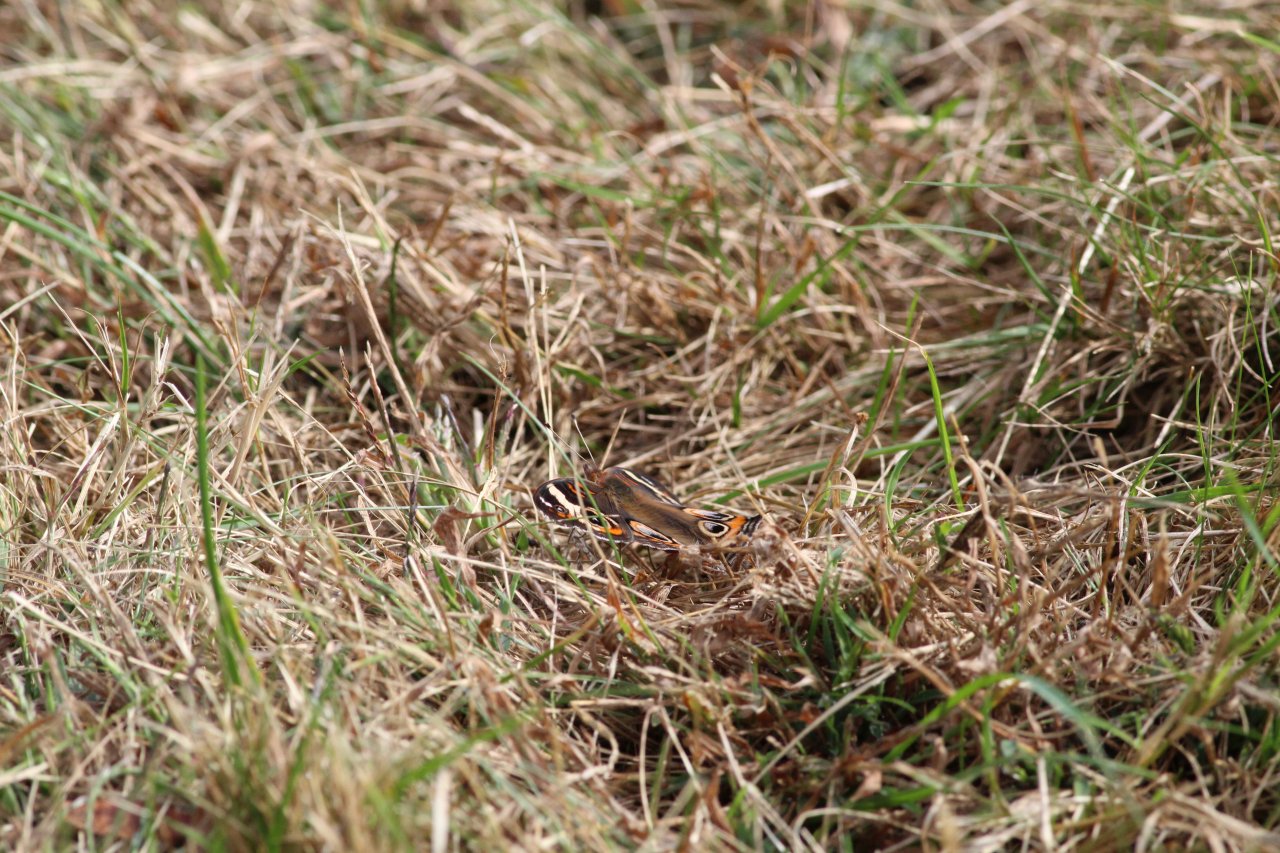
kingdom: Animalia
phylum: Arthropoda
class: Insecta
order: Lepidoptera
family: Nymphalidae
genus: Junonia
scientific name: Junonia coenia
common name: Common Buckeye
